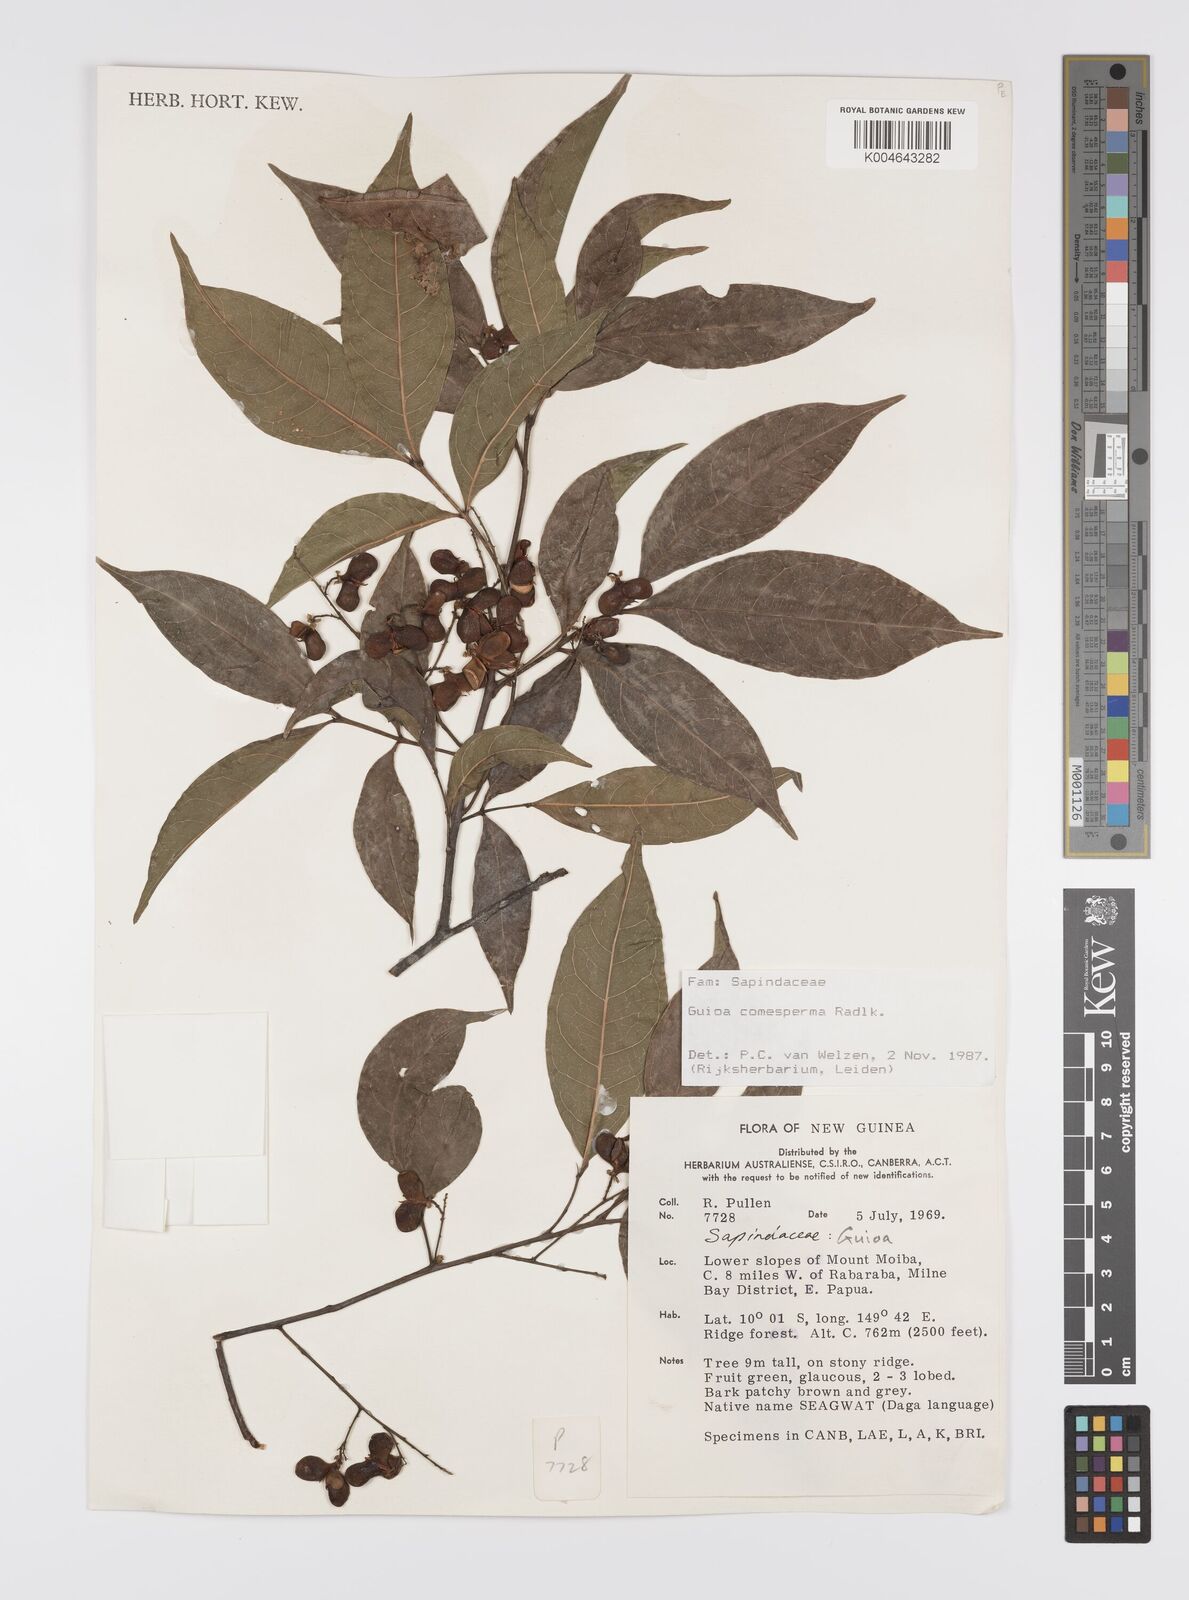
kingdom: Plantae
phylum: Tracheophyta
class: Magnoliopsida
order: Sapindales
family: Sapindaceae
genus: Guioa
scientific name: Guioa comesperma
